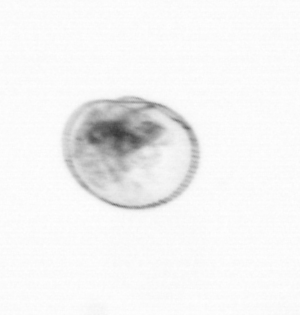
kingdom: Chromista
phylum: Myzozoa
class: Dinophyceae
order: Noctilucales
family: Noctilucaceae
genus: Noctiluca
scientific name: Noctiluca scintillans
